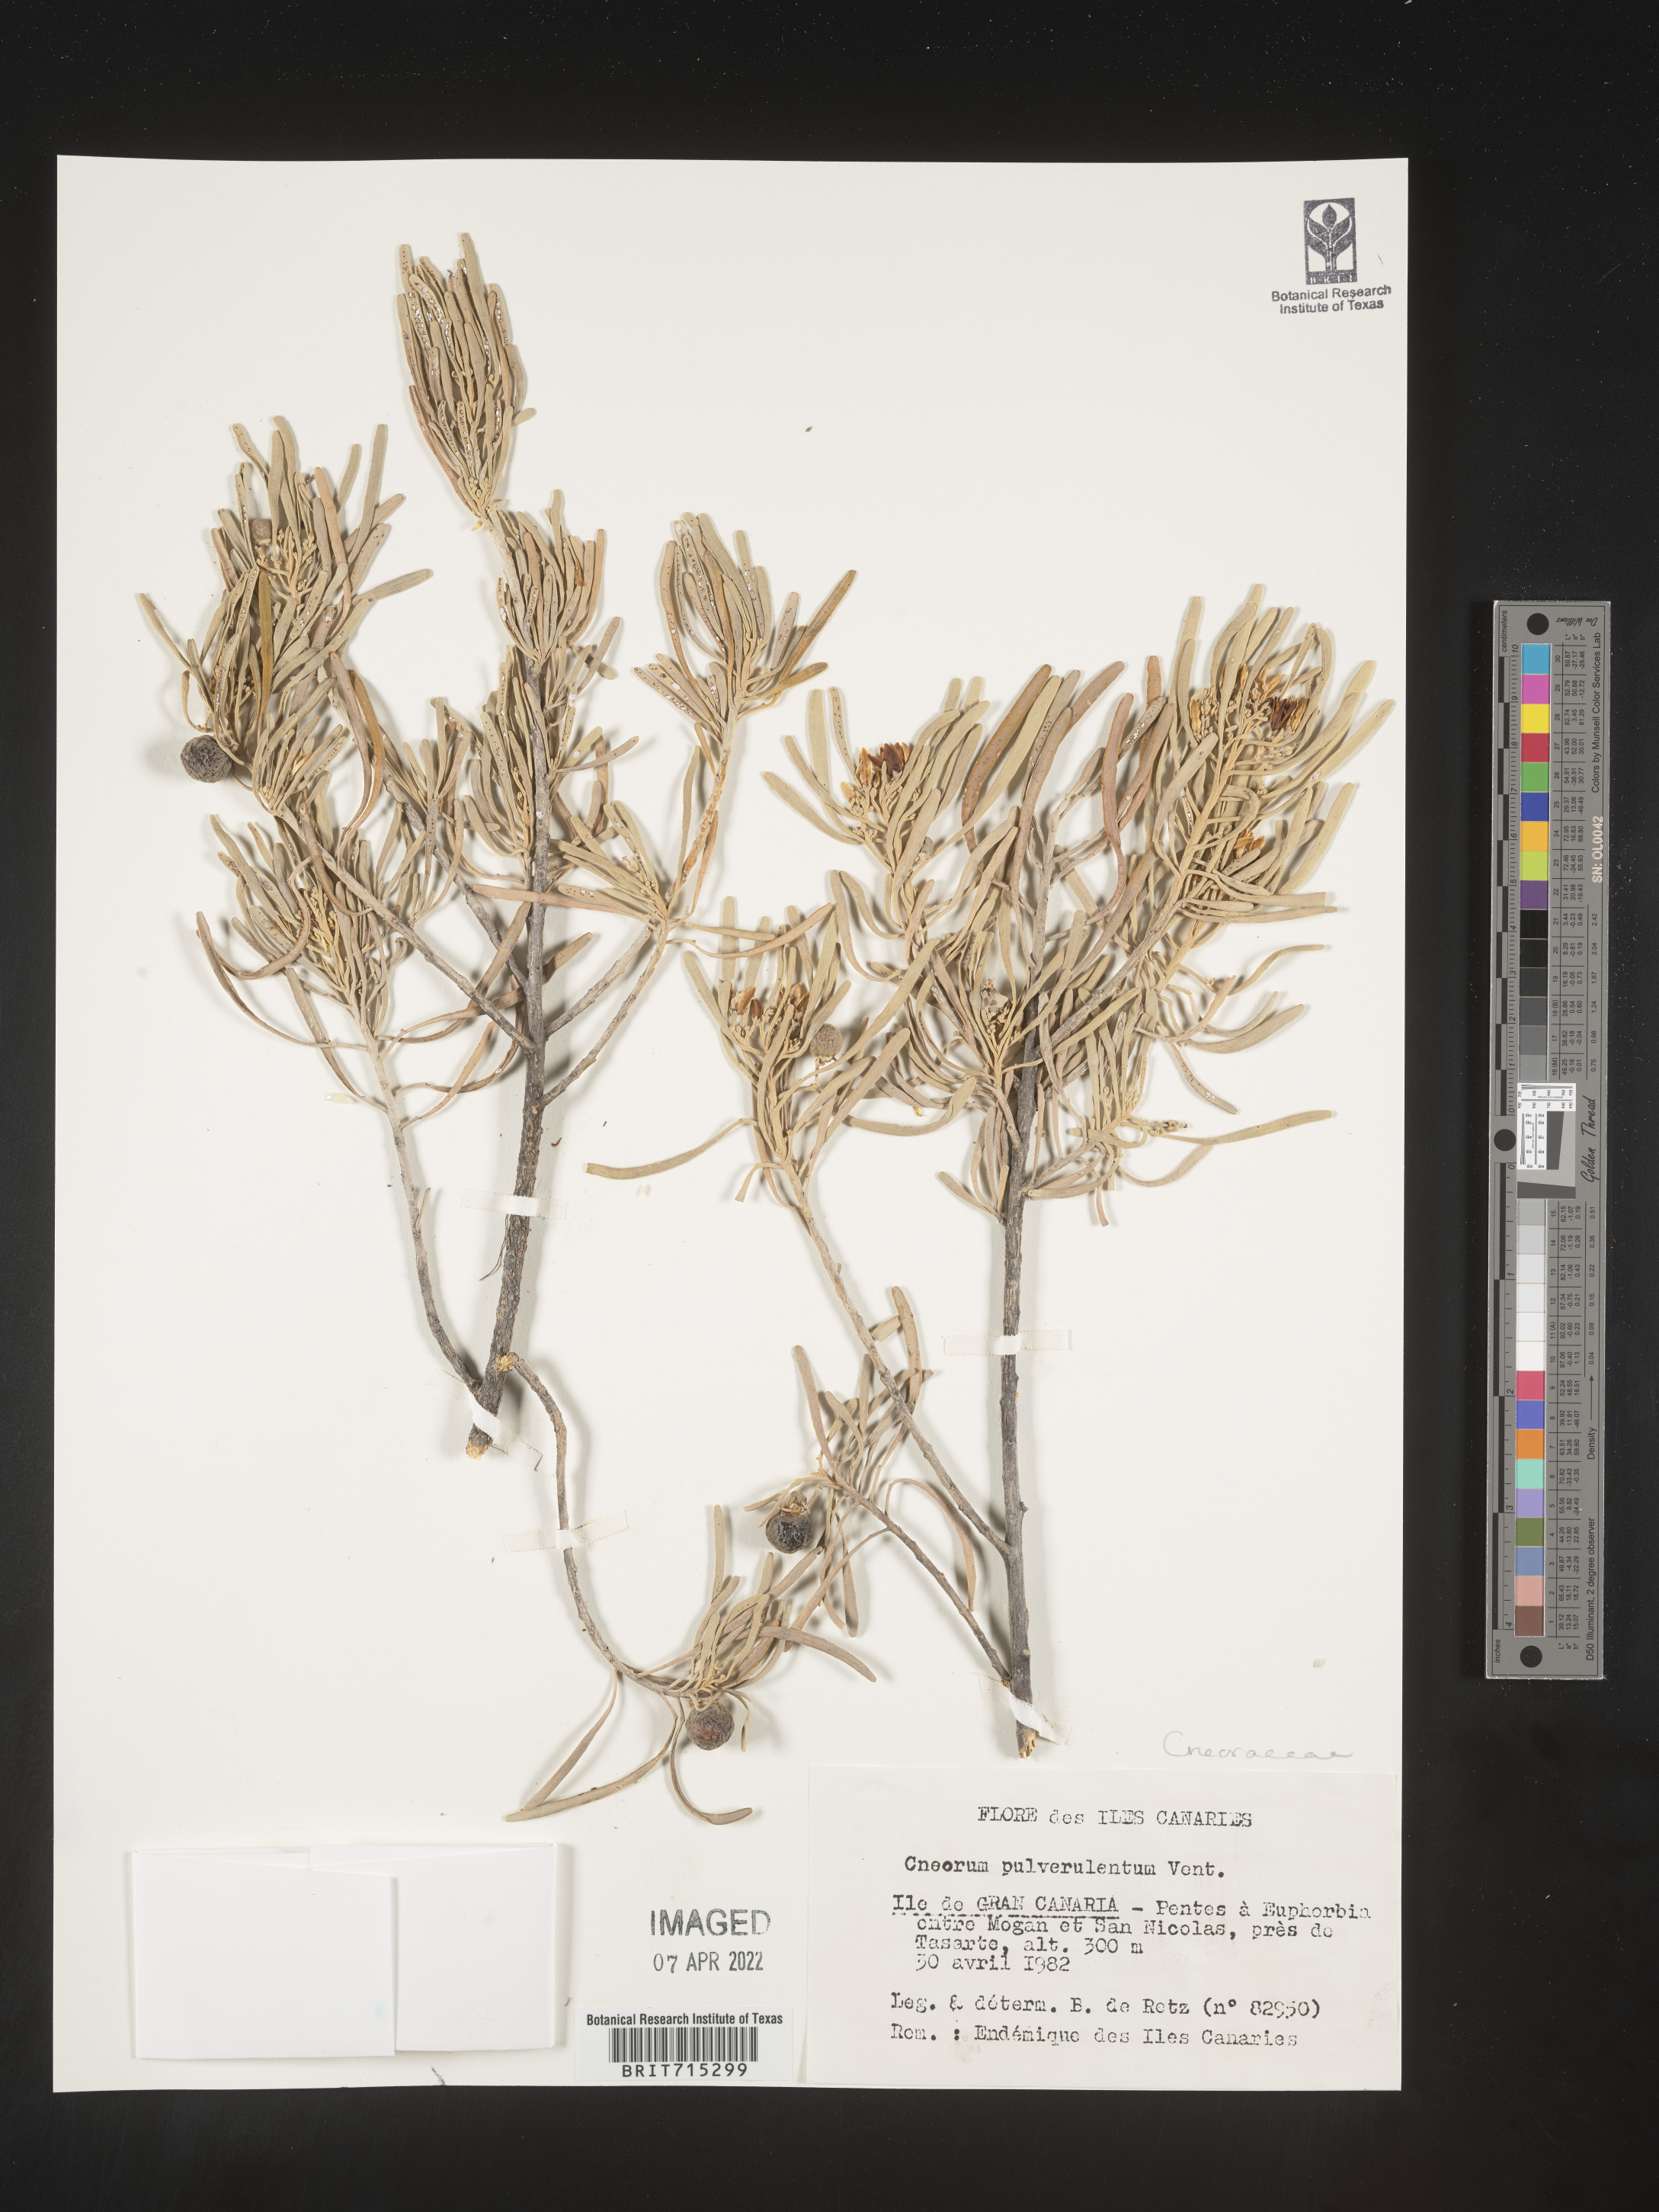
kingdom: Plantae
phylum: Tracheophyta
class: Magnoliopsida
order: Sapindales
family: Rutaceae
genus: Cneorum
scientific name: Cneorum
